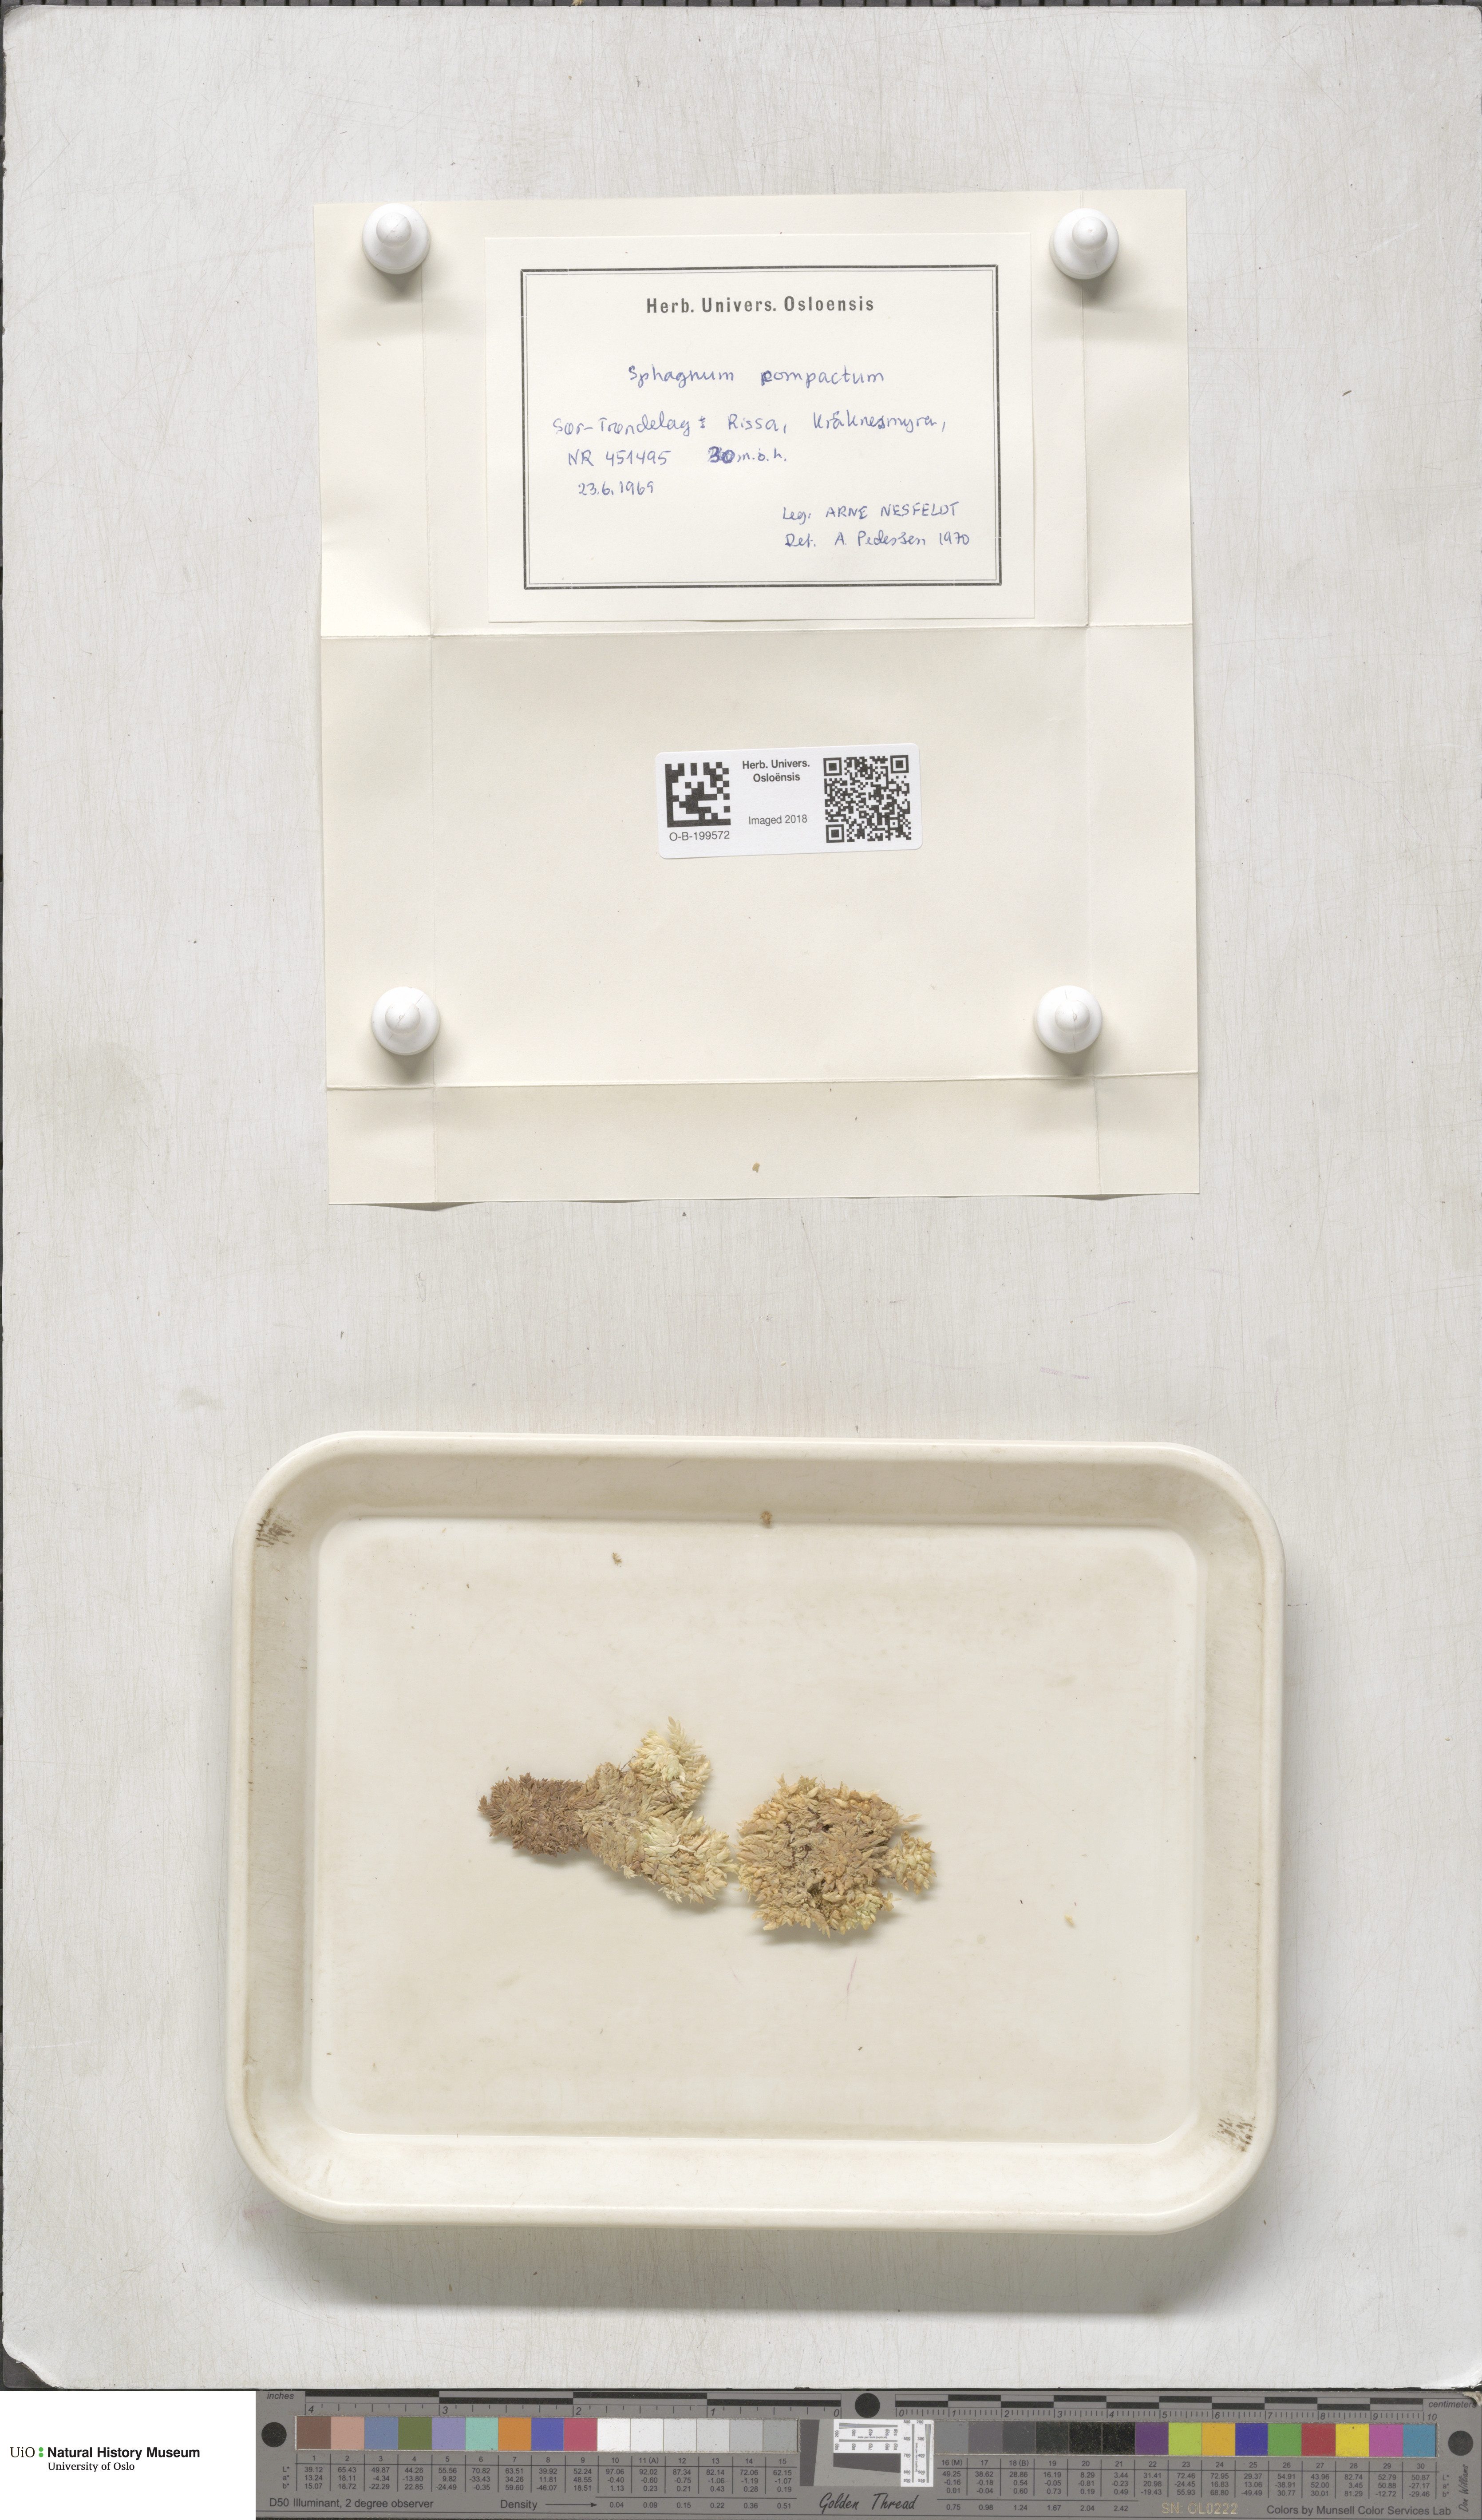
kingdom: Plantae
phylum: Bryophyta
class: Sphagnopsida
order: Sphagnales
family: Sphagnaceae
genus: Sphagnum
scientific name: Sphagnum compactum
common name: Compact peat moss
